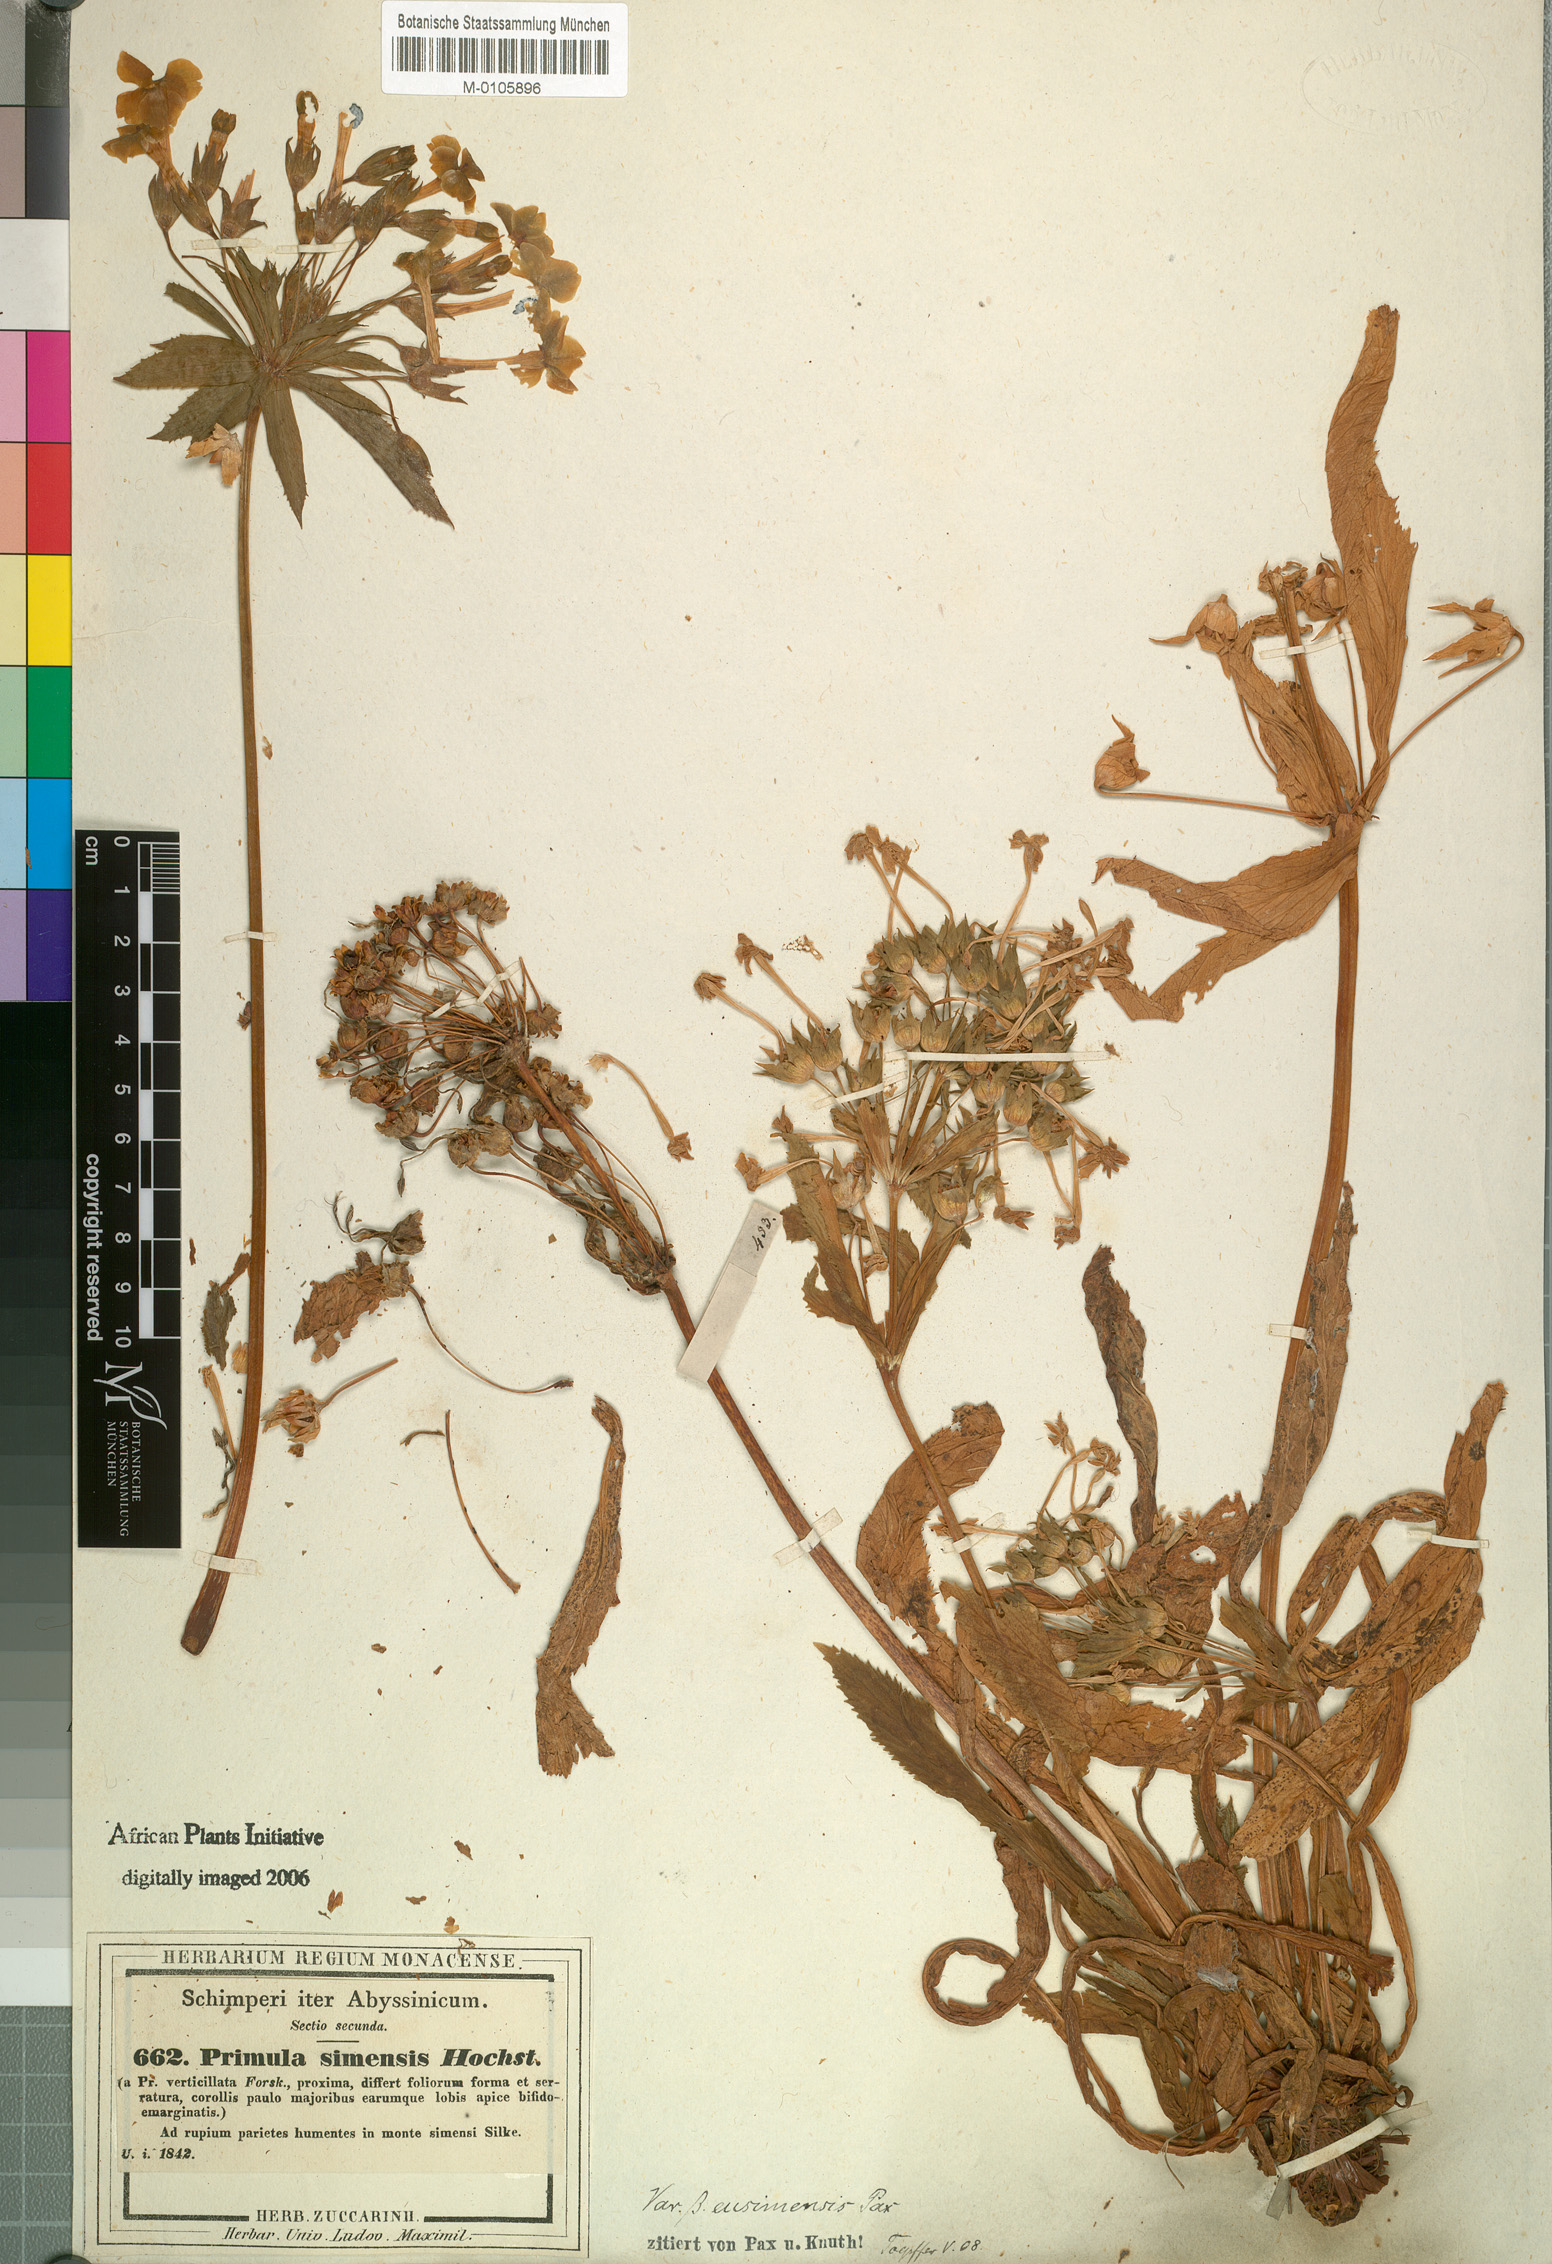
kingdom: Plantae
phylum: Tracheophyta
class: Magnoliopsida
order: Ericales
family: Primulaceae
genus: Evotrochis
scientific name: Evotrochis simensis
